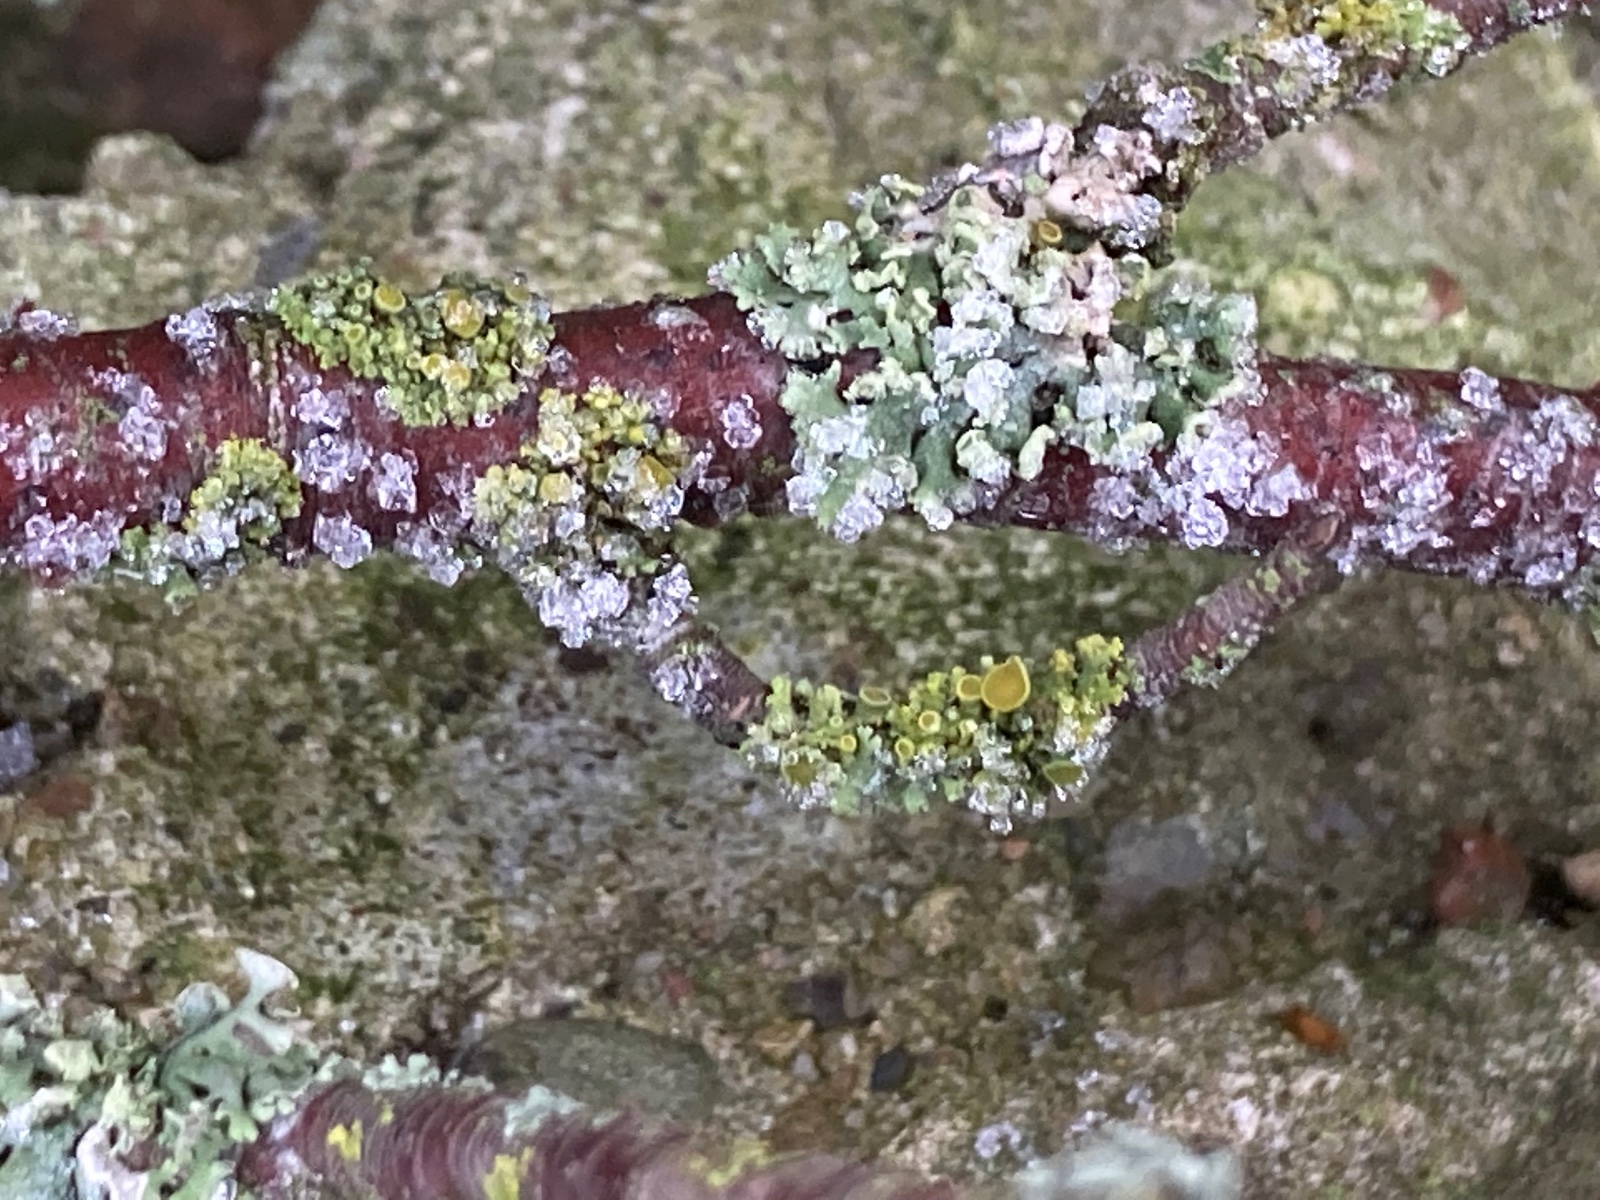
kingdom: Fungi
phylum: Ascomycota
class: Lecanoromycetes
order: Teloschistales
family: Teloschistaceae
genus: Polycauliona
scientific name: Polycauliona polycarpa
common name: mangefrugtet orangelav
